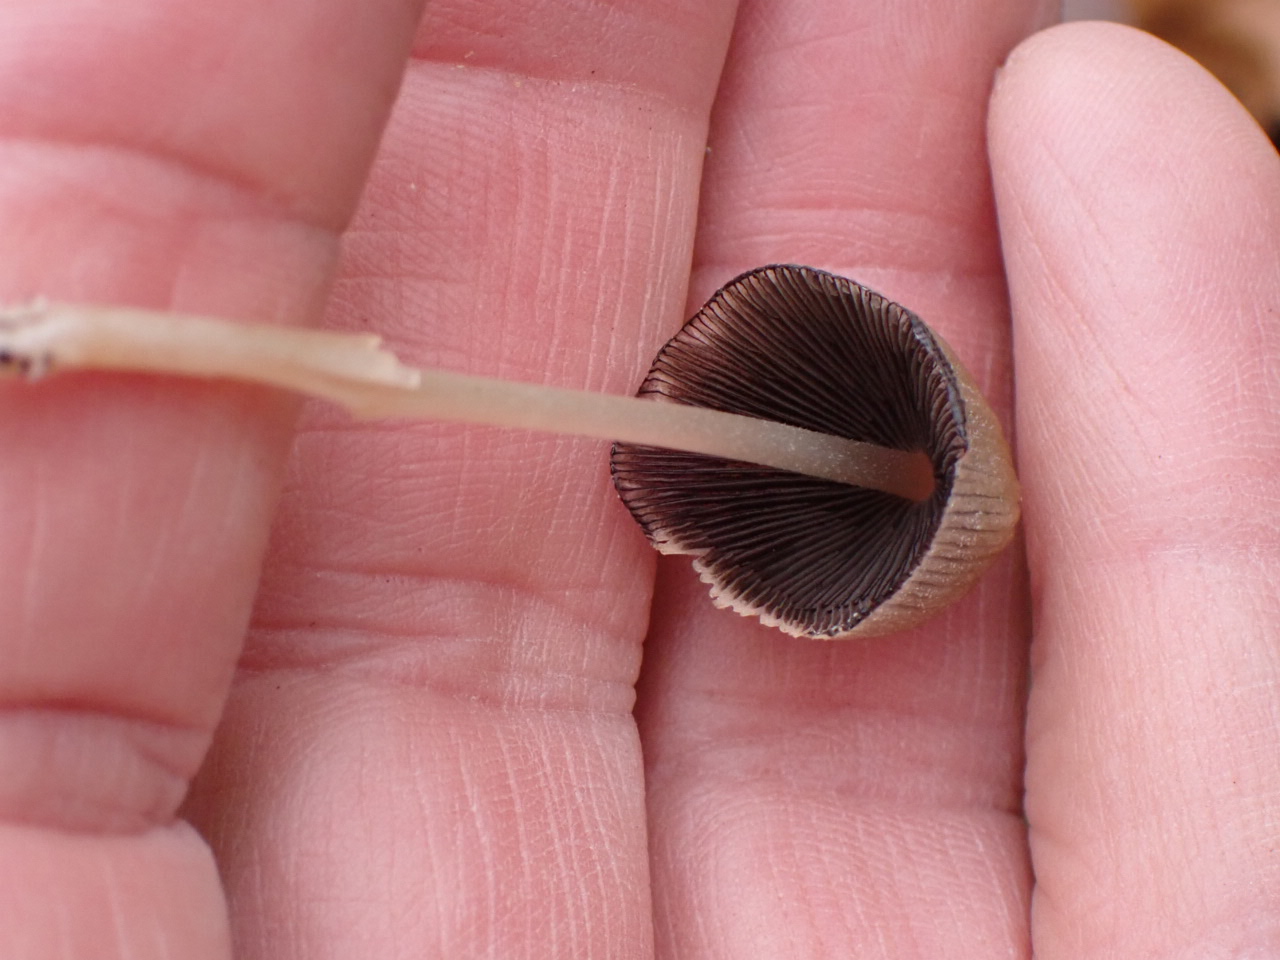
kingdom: Fungi
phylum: Basidiomycota
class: Agaricomycetes
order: Agaricales
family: Psathyrellaceae
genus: Coprinellus
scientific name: Coprinellus micaceus
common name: glimmer-blækhat
